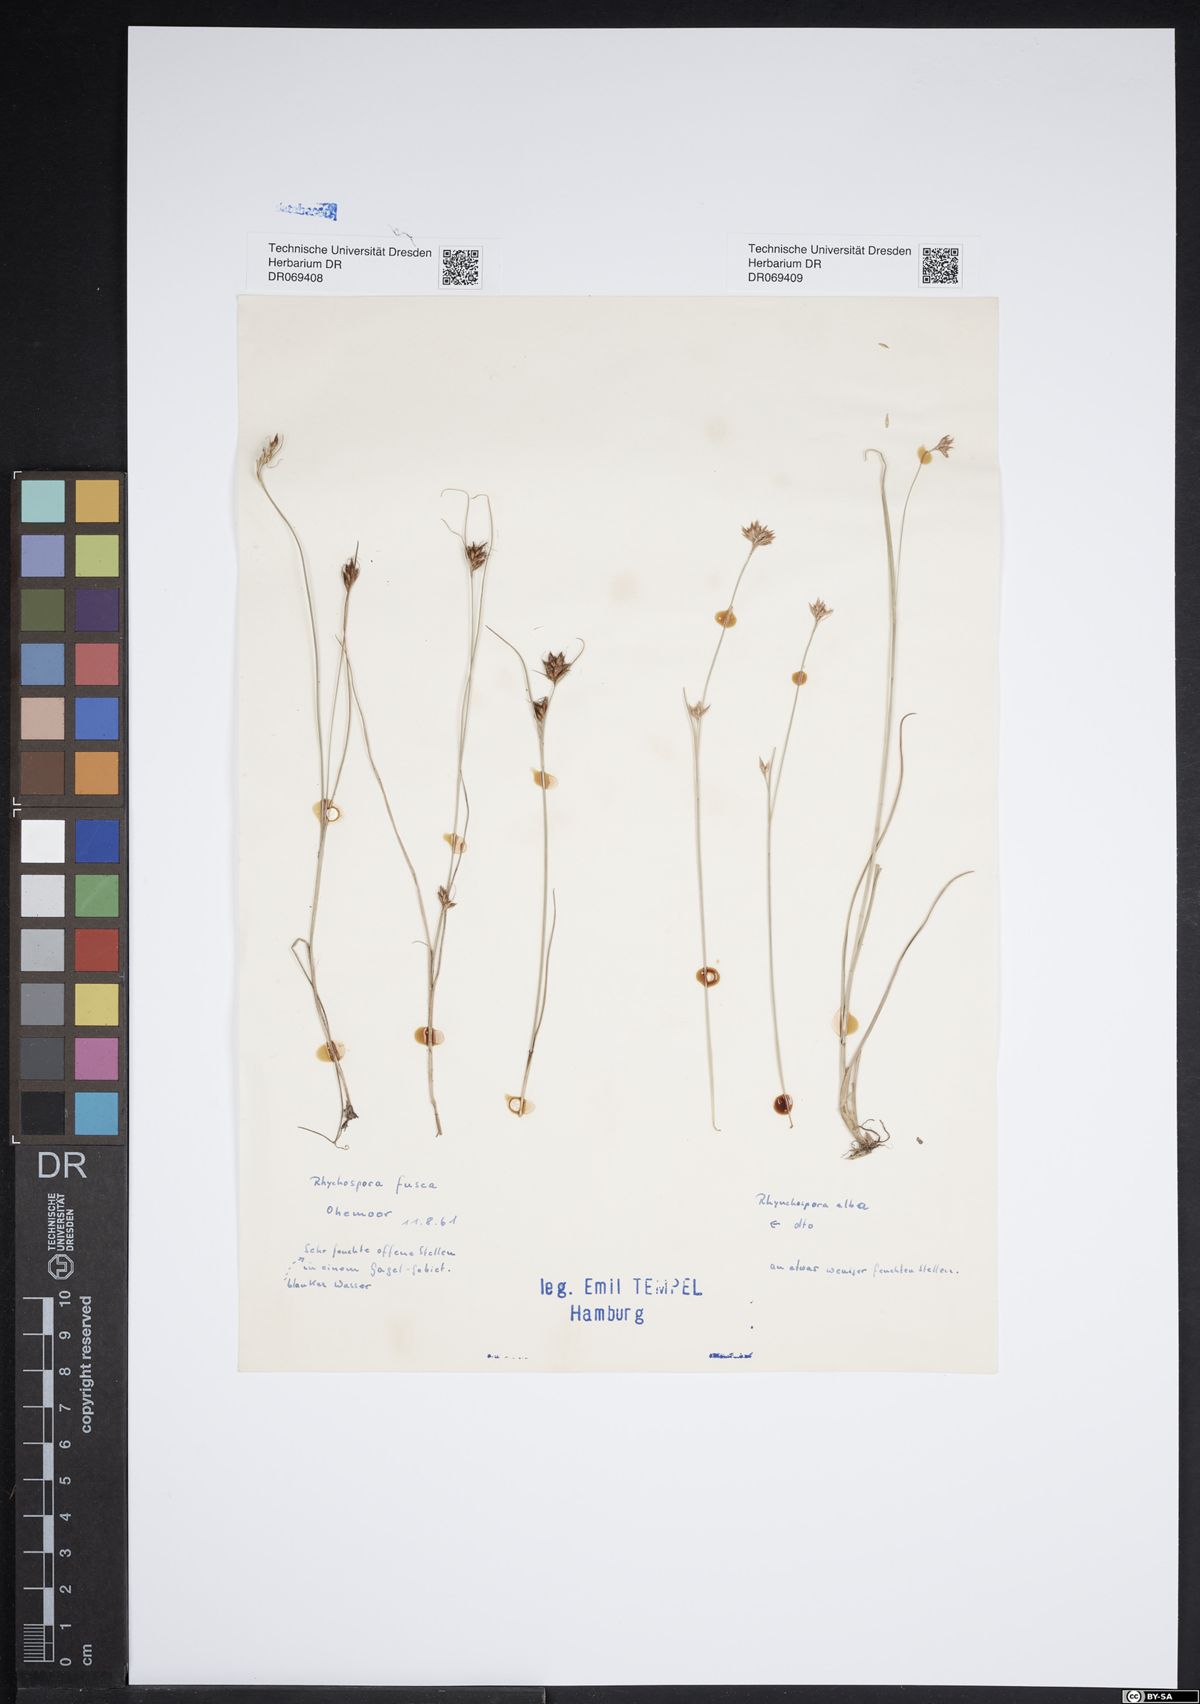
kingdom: Plantae
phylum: Tracheophyta
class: Liliopsida
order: Poales
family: Cyperaceae
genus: Rhynchospora
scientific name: Rhynchospora fusca
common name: Brown beak-sedge
